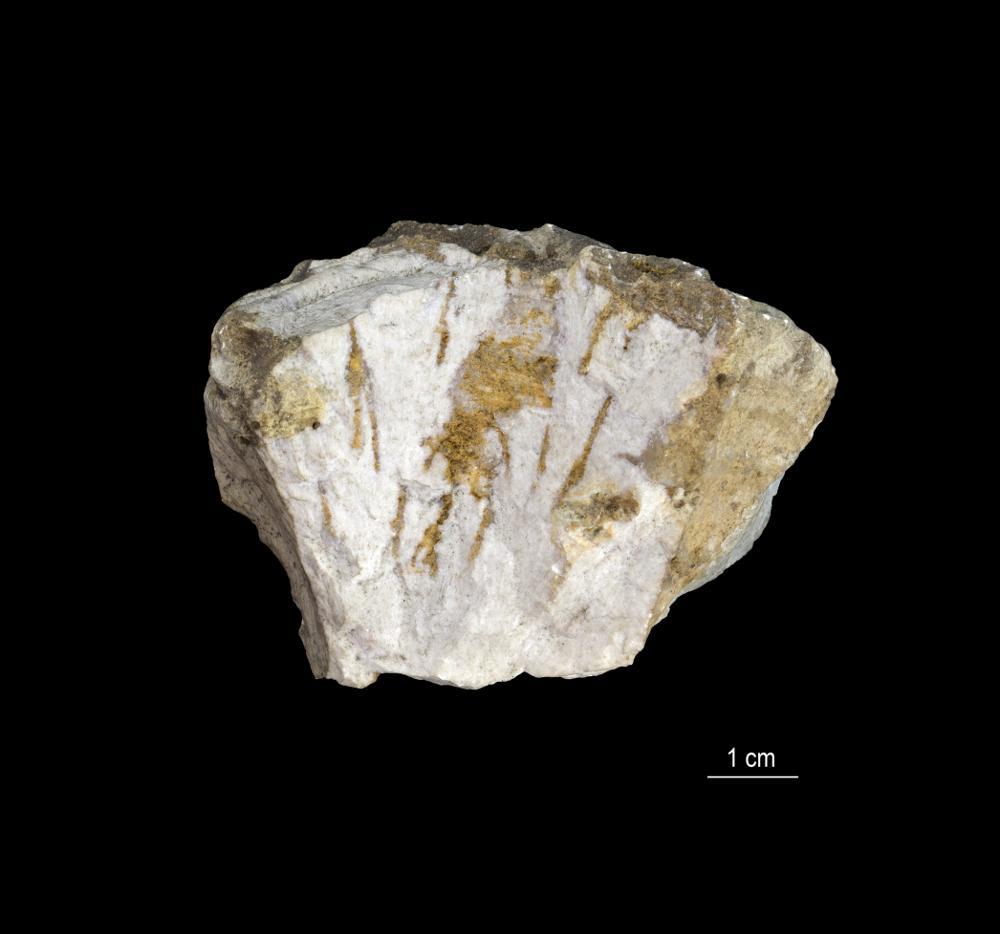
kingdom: Animalia
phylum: Porifera
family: Chaetetidae
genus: Solenopora
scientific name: Solenopora spongioides
